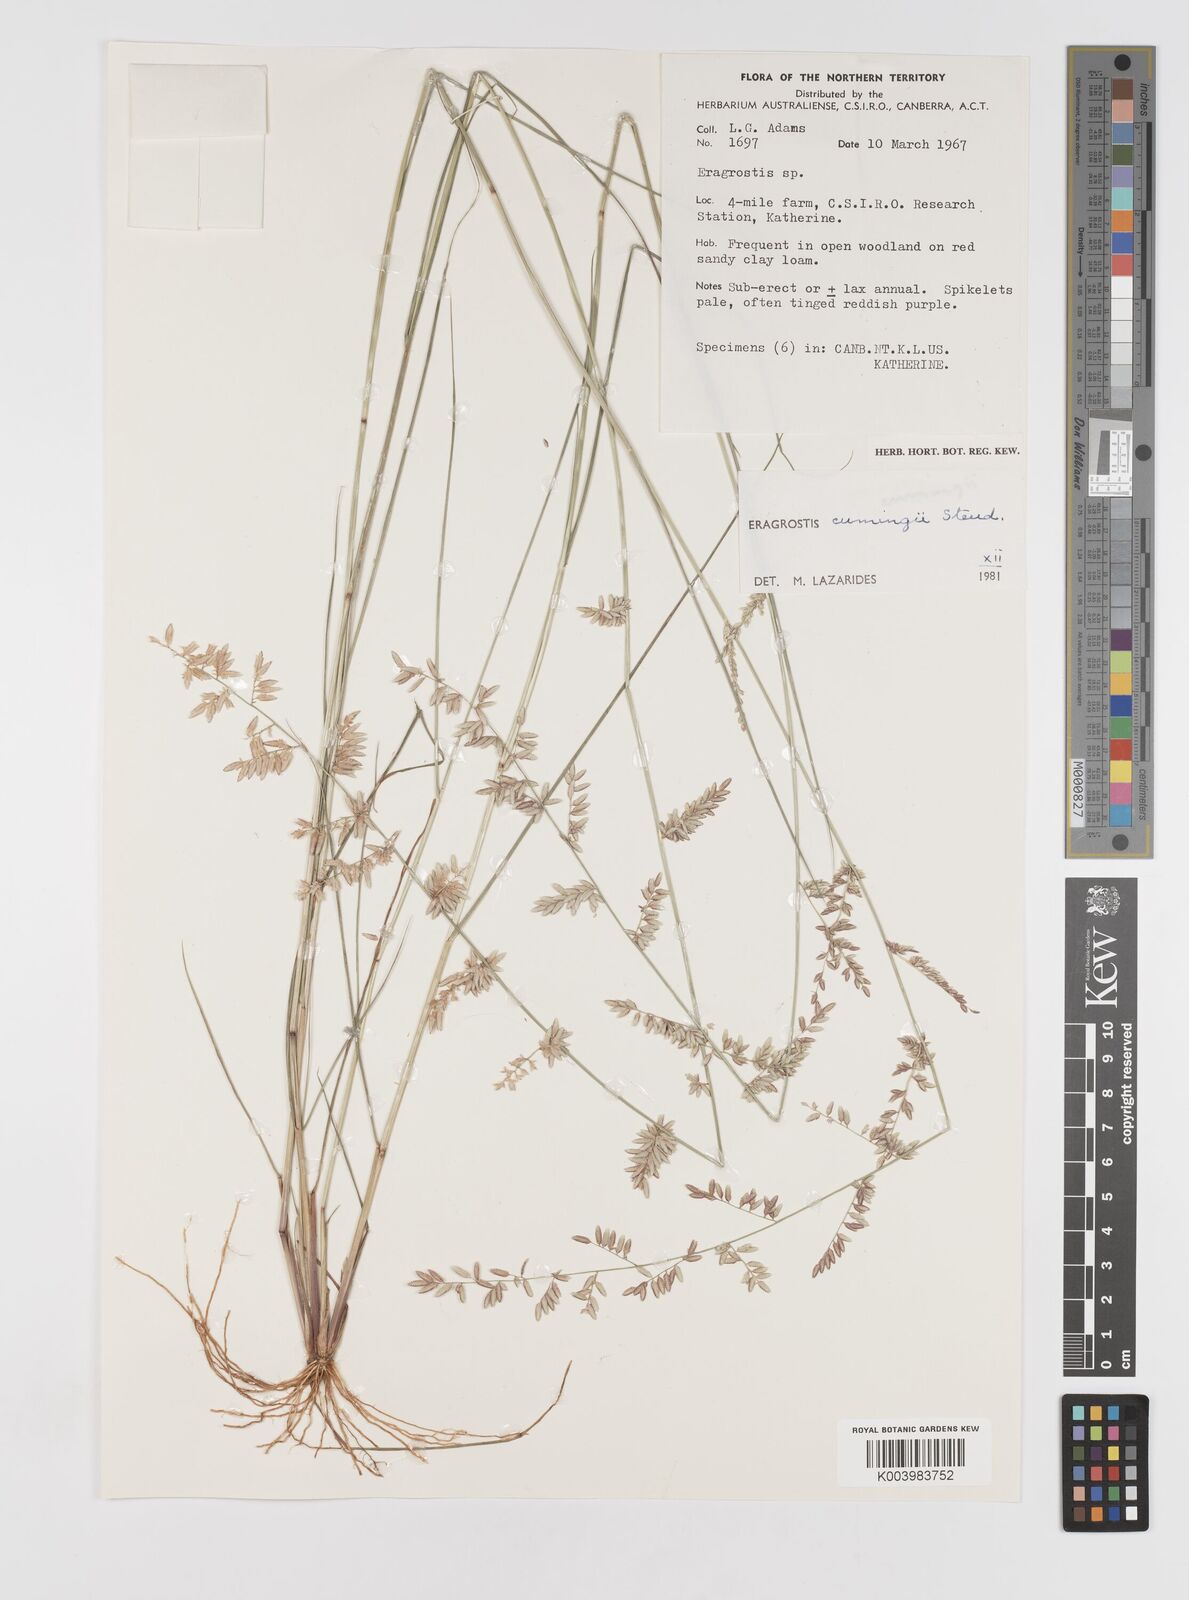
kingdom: Plantae
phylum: Tracheophyta
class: Liliopsida
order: Poales
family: Poaceae
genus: Eragrostis
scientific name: Eragrostis cumingii
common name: Cuming's lovegrass
